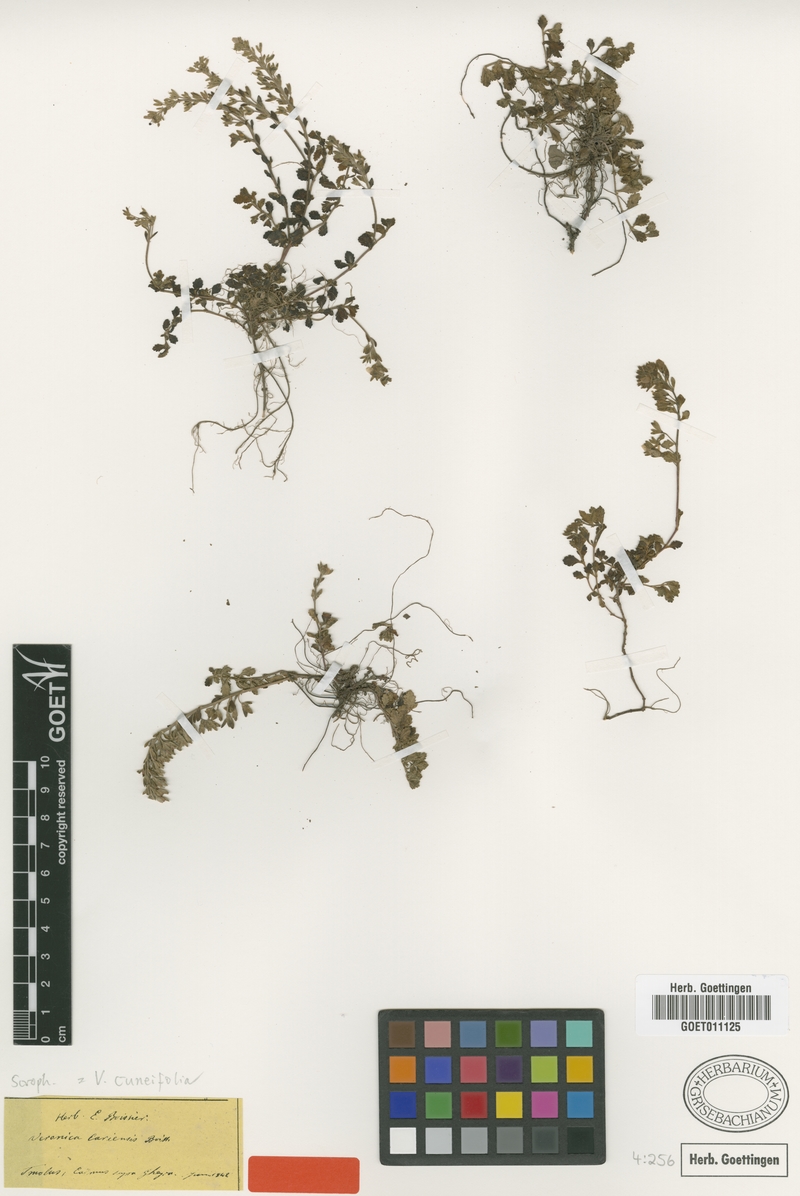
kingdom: Plantae
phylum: Tracheophyta
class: Magnoliopsida
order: Lamiales
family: Plantaginaceae
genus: Veronica
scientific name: Veronica cuneifolia
